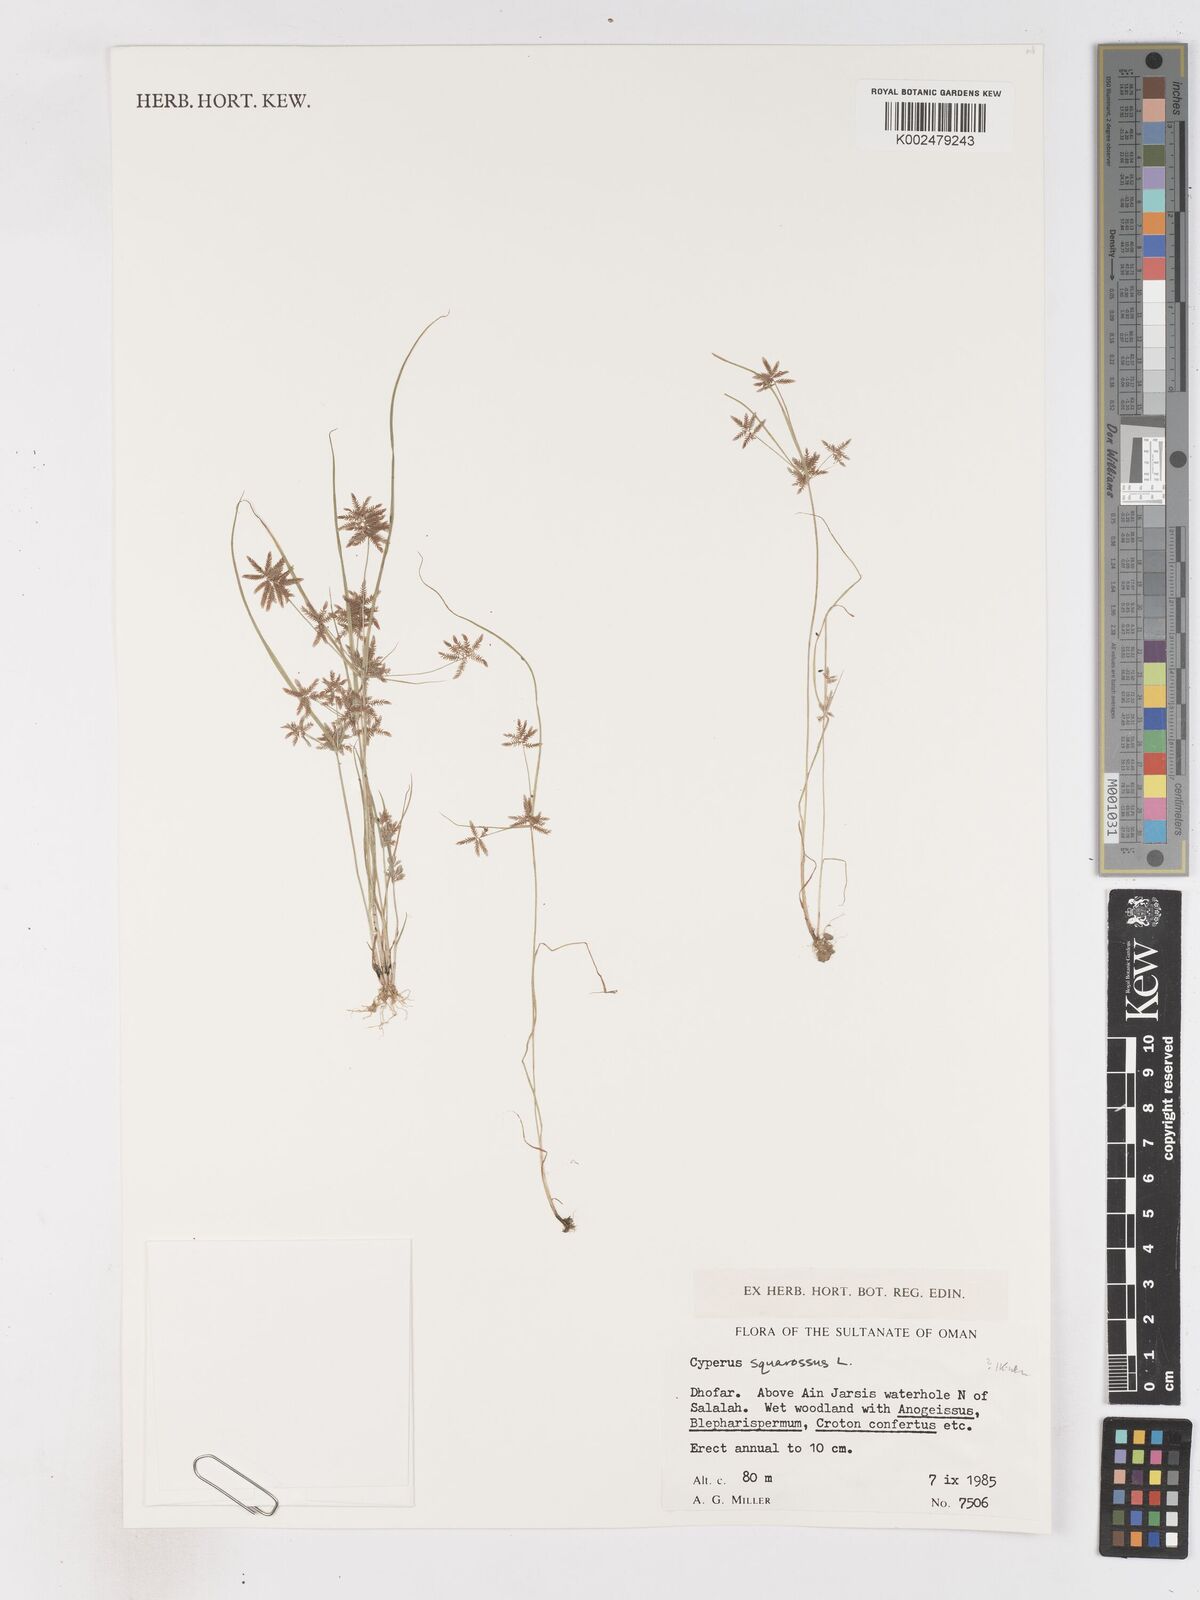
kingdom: Plantae
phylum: Tracheophyta
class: Liliopsida
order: Poales
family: Cyperaceae
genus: Cyperus
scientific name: Cyperus squarrosus
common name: Awned cyperus
